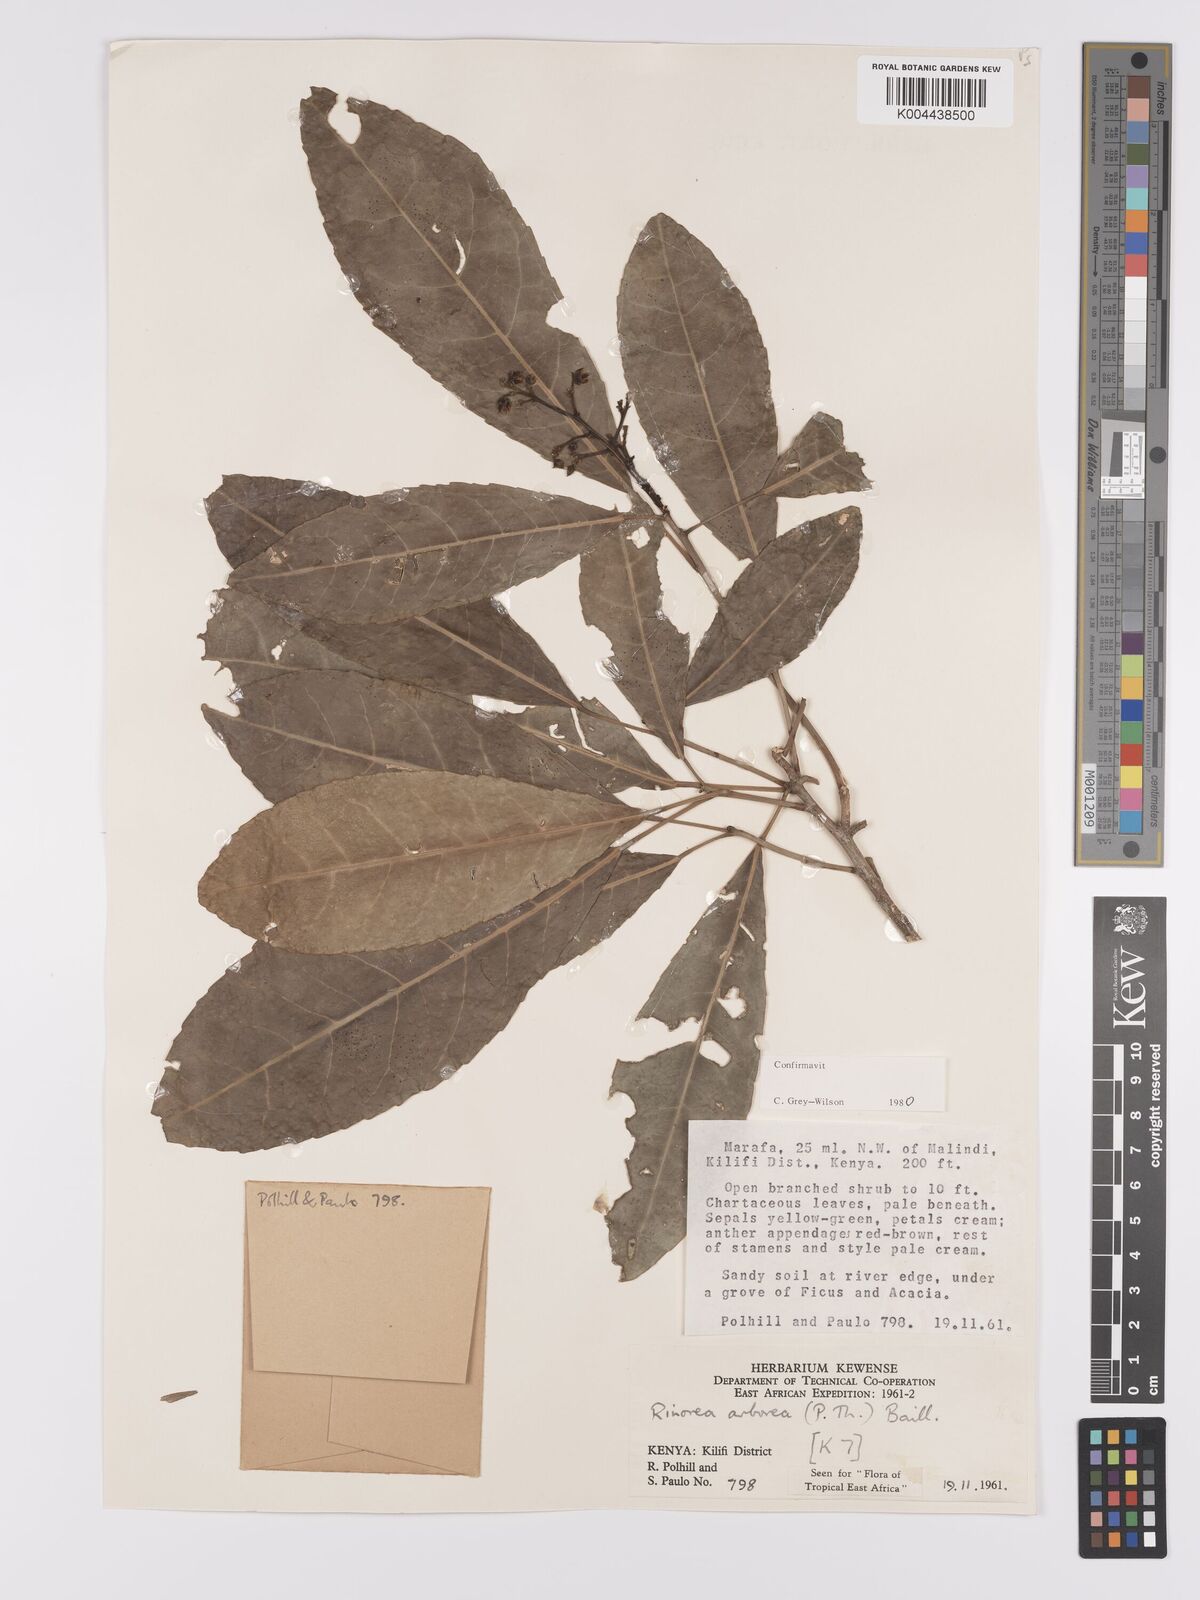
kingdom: Plantae
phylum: Tracheophyta
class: Magnoliopsida
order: Malpighiales
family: Violaceae
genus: Rinorea
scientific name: Rinorea arborea
